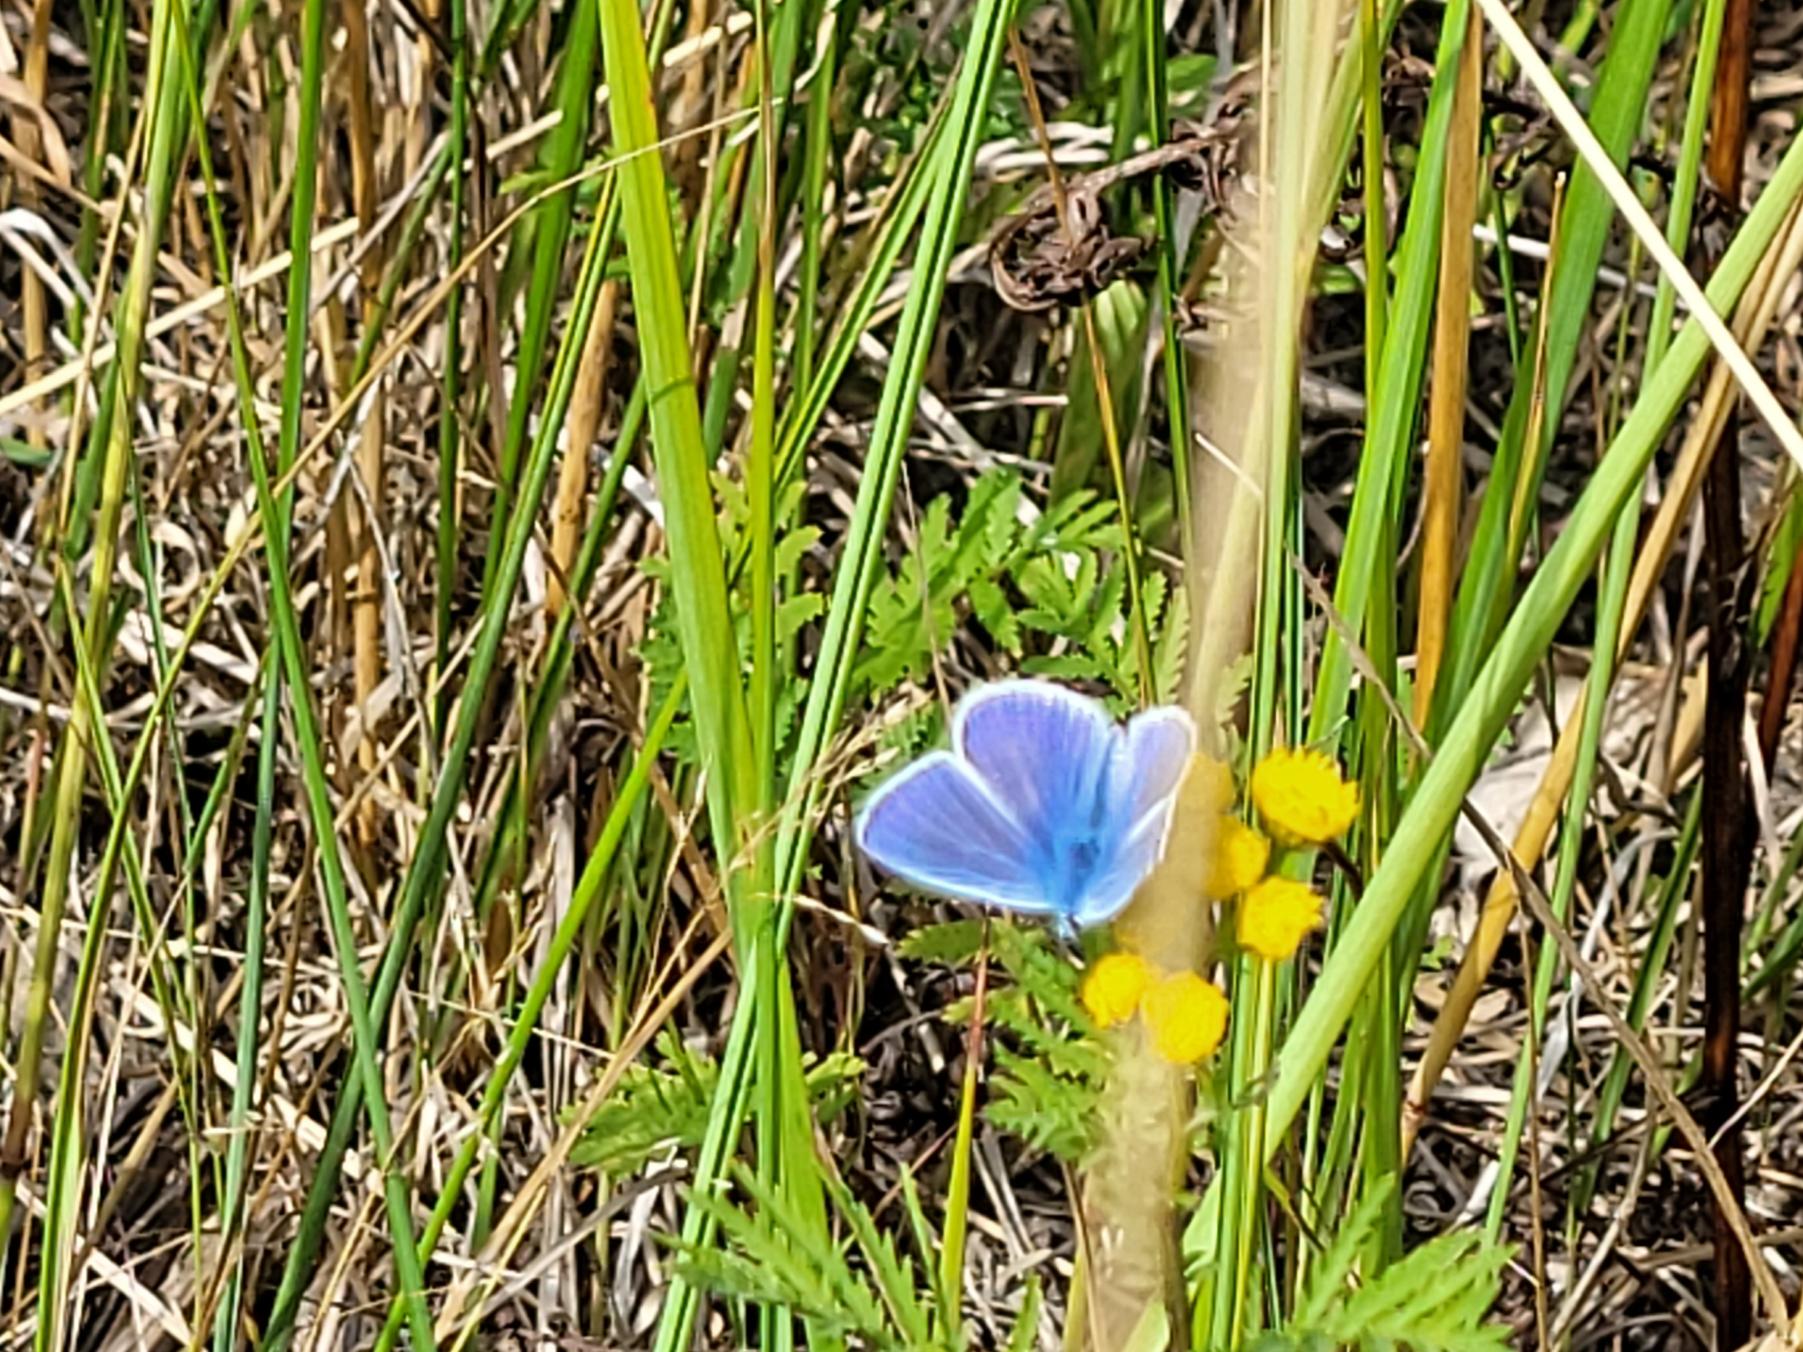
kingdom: Animalia
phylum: Arthropoda
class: Insecta
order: Lepidoptera
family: Lycaenidae
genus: Polyommatus
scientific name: Polyommatus icarus
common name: Almindelig blåfugl
